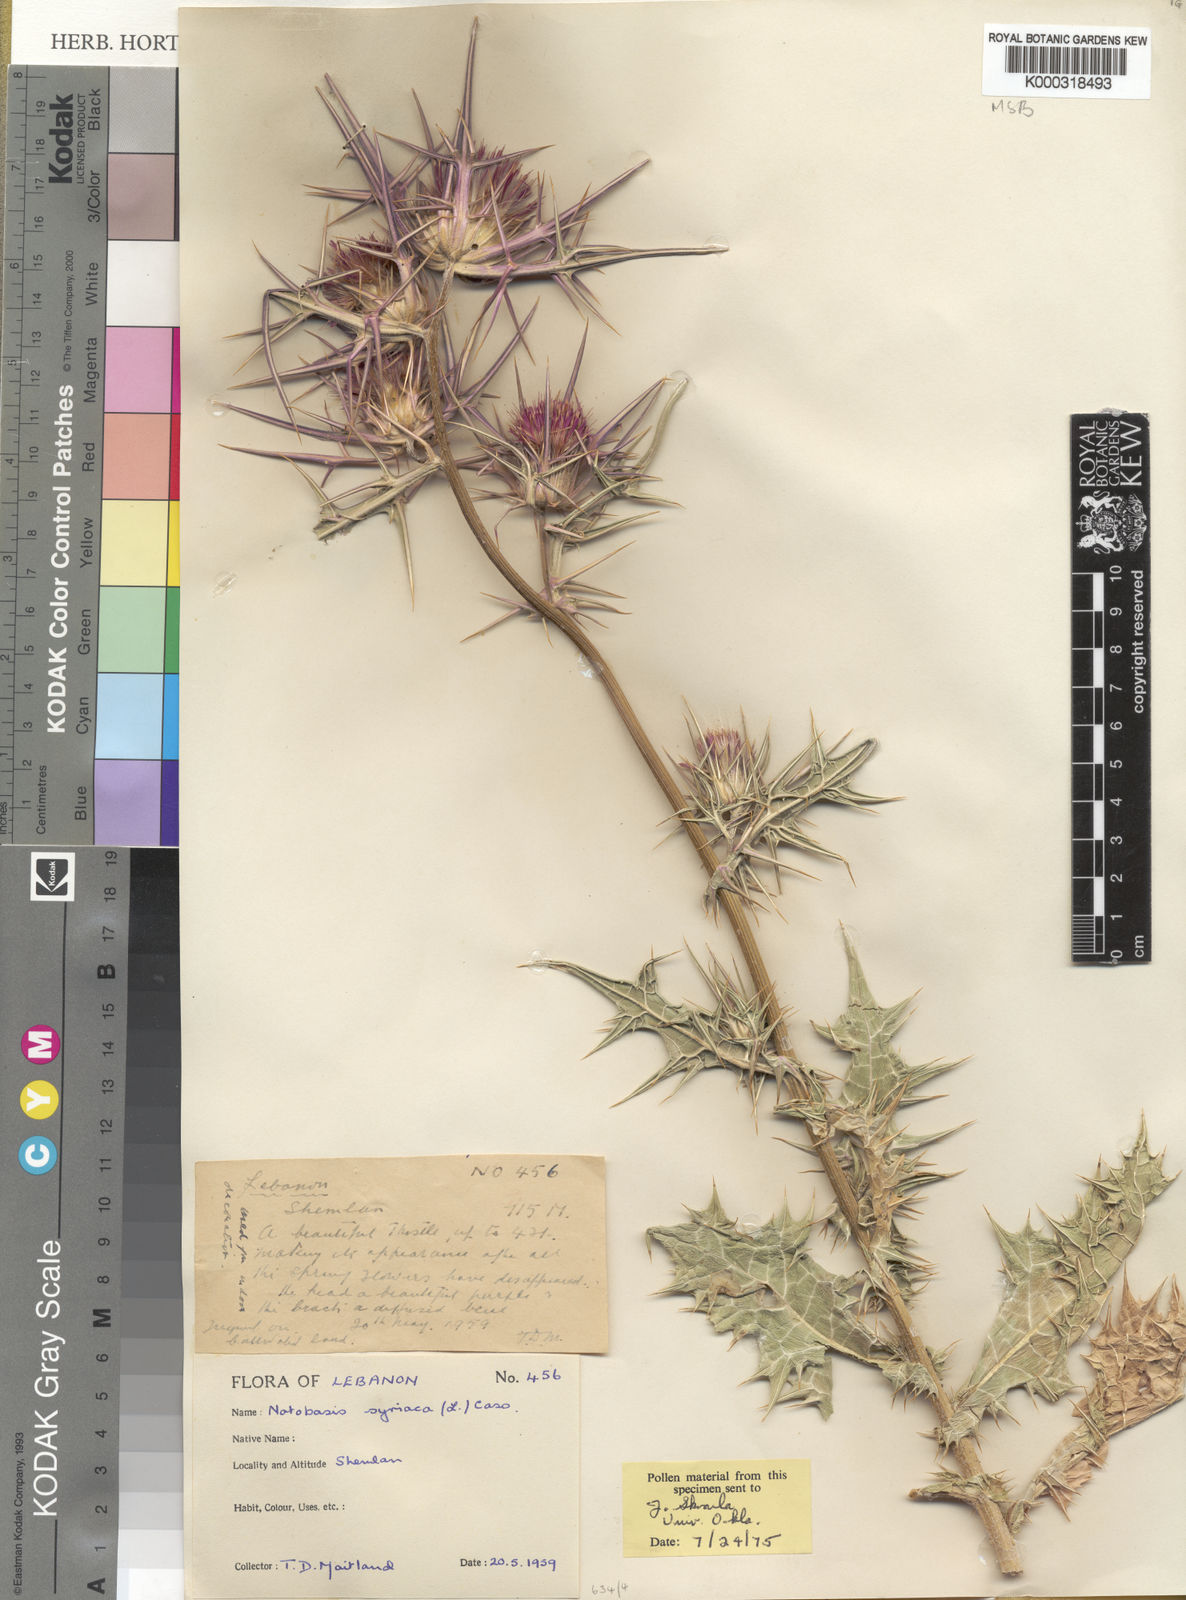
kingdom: Plantae
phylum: Tracheophyta
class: Magnoliopsida
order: Asterales
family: Asteraceae
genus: Notobasis
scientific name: Notobasis syriaca
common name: Syrian thistle
